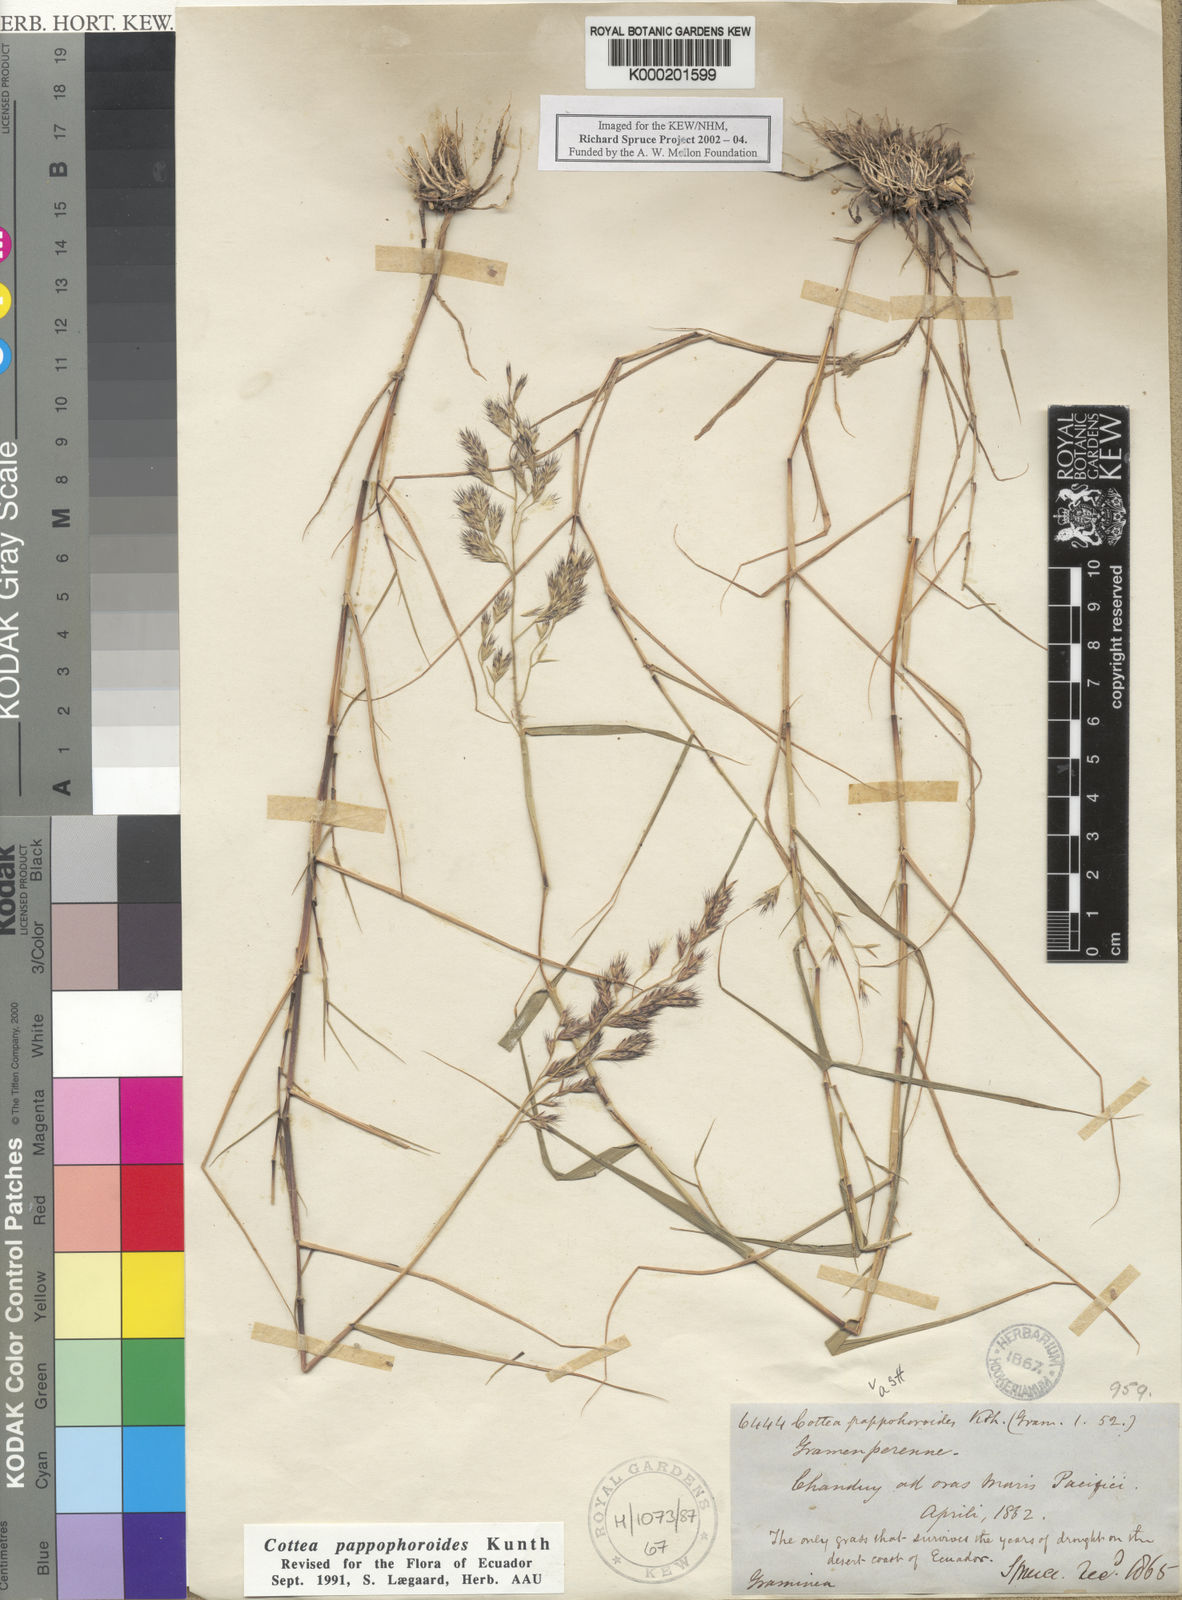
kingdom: Plantae
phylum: Tracheophyta
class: Liliopsida
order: Poales
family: Poaceae
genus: Cottea
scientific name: Cottea pappophoroides
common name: Cotta grass
